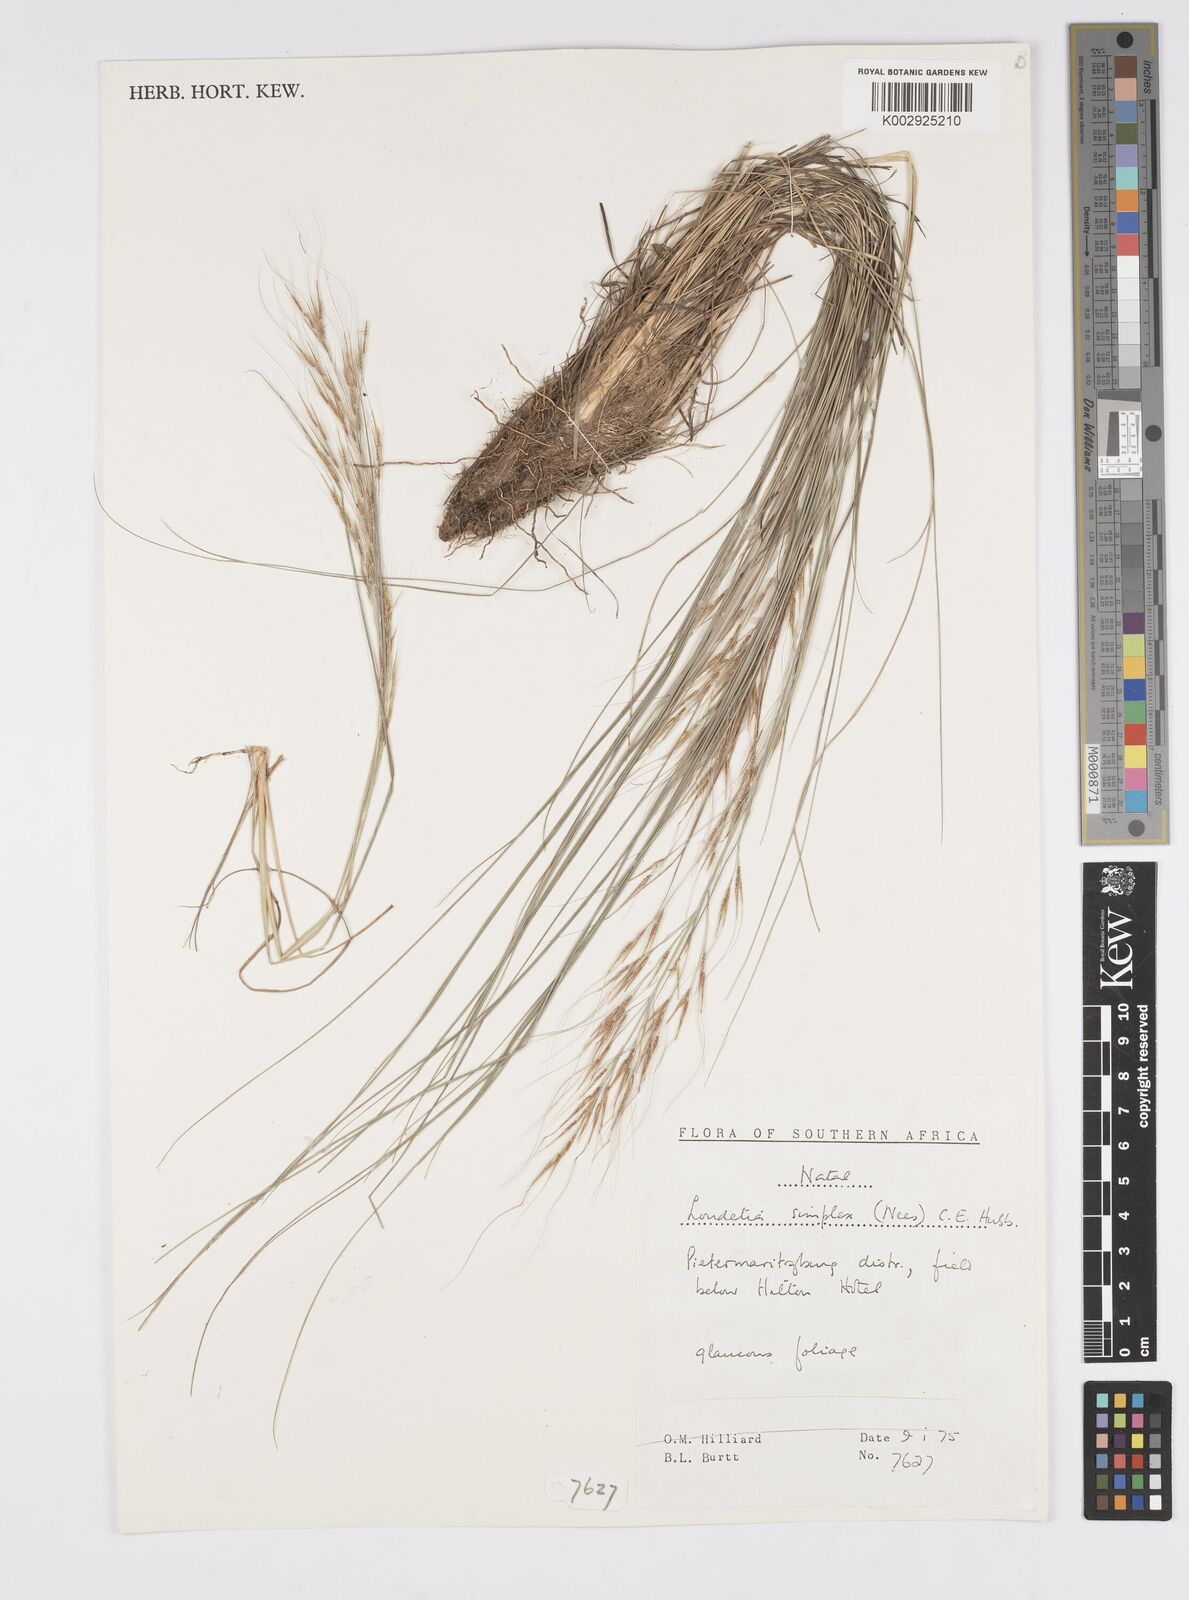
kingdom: Plantae
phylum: Tracheophyta
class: Liliopsida
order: Poales
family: Poaceae
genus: Loudetia
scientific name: Loudetia simplex
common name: Common russet grass
